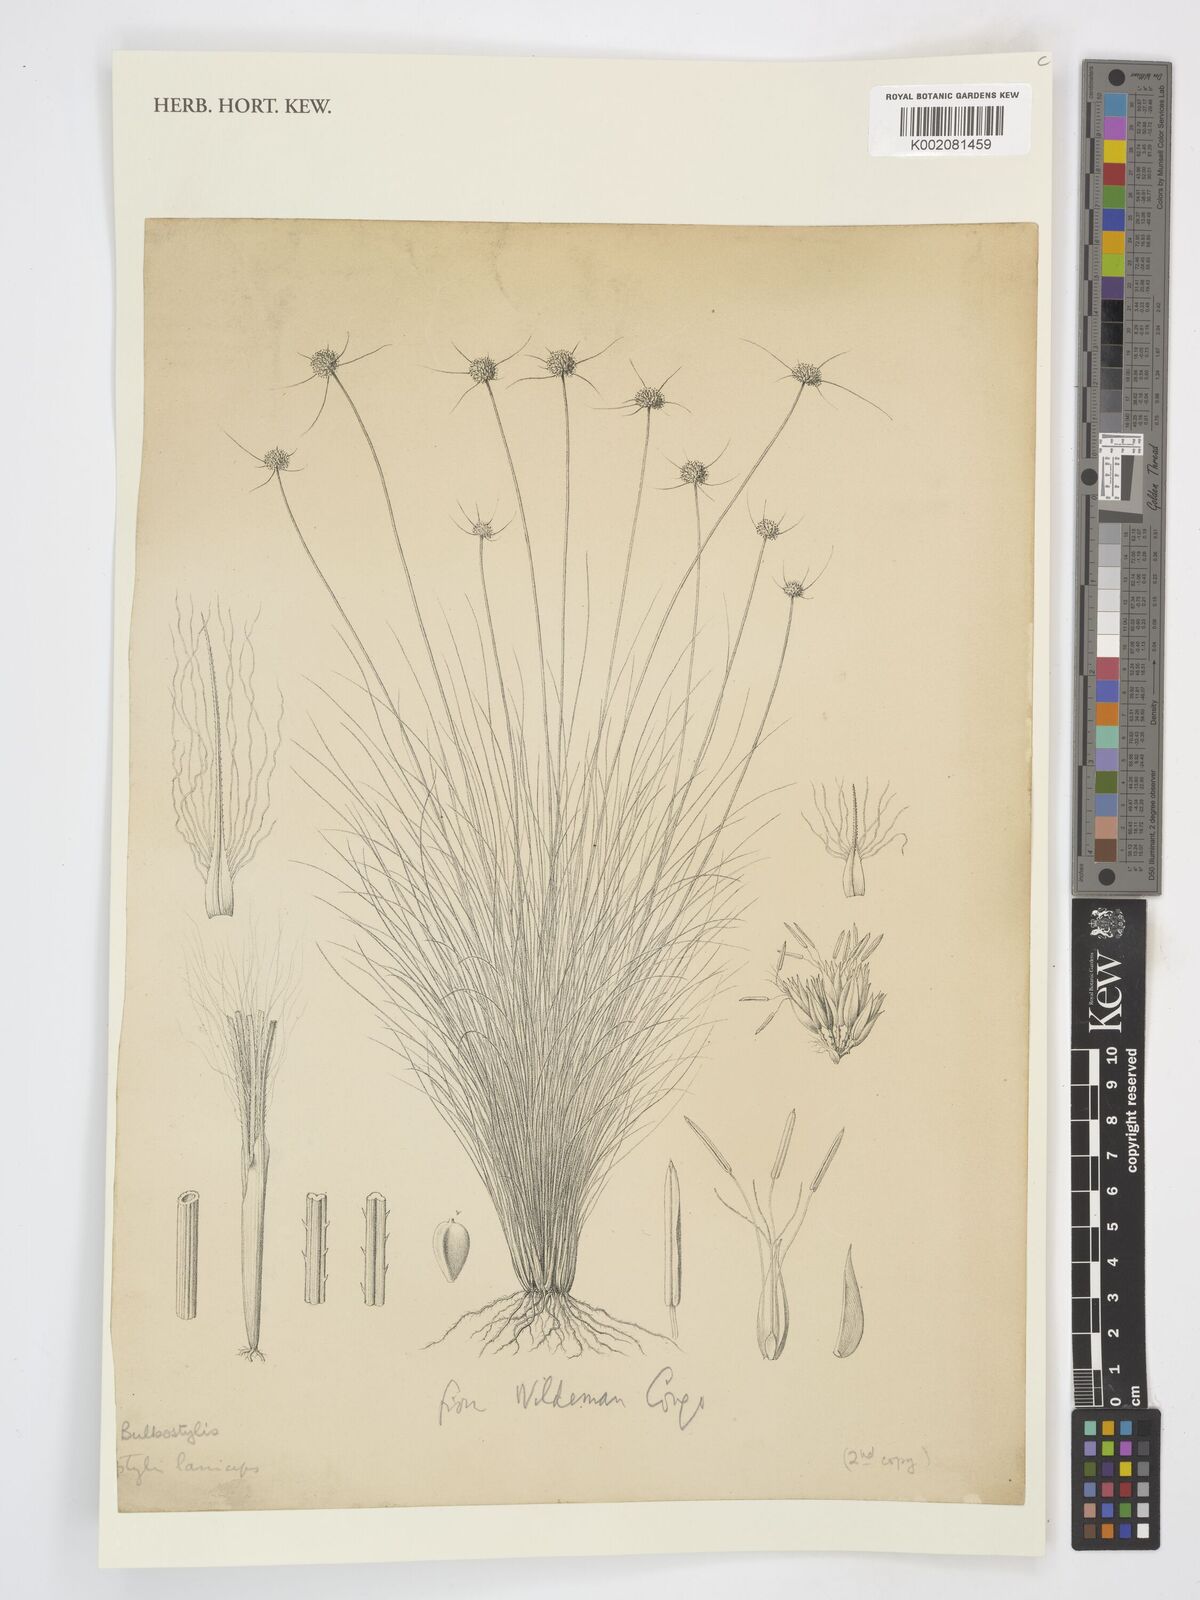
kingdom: Plantae
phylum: Tracheophyta
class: Liliopsida
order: Poales
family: Cyperaceae
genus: Bulbostylis
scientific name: Bulbostylis laniceps
